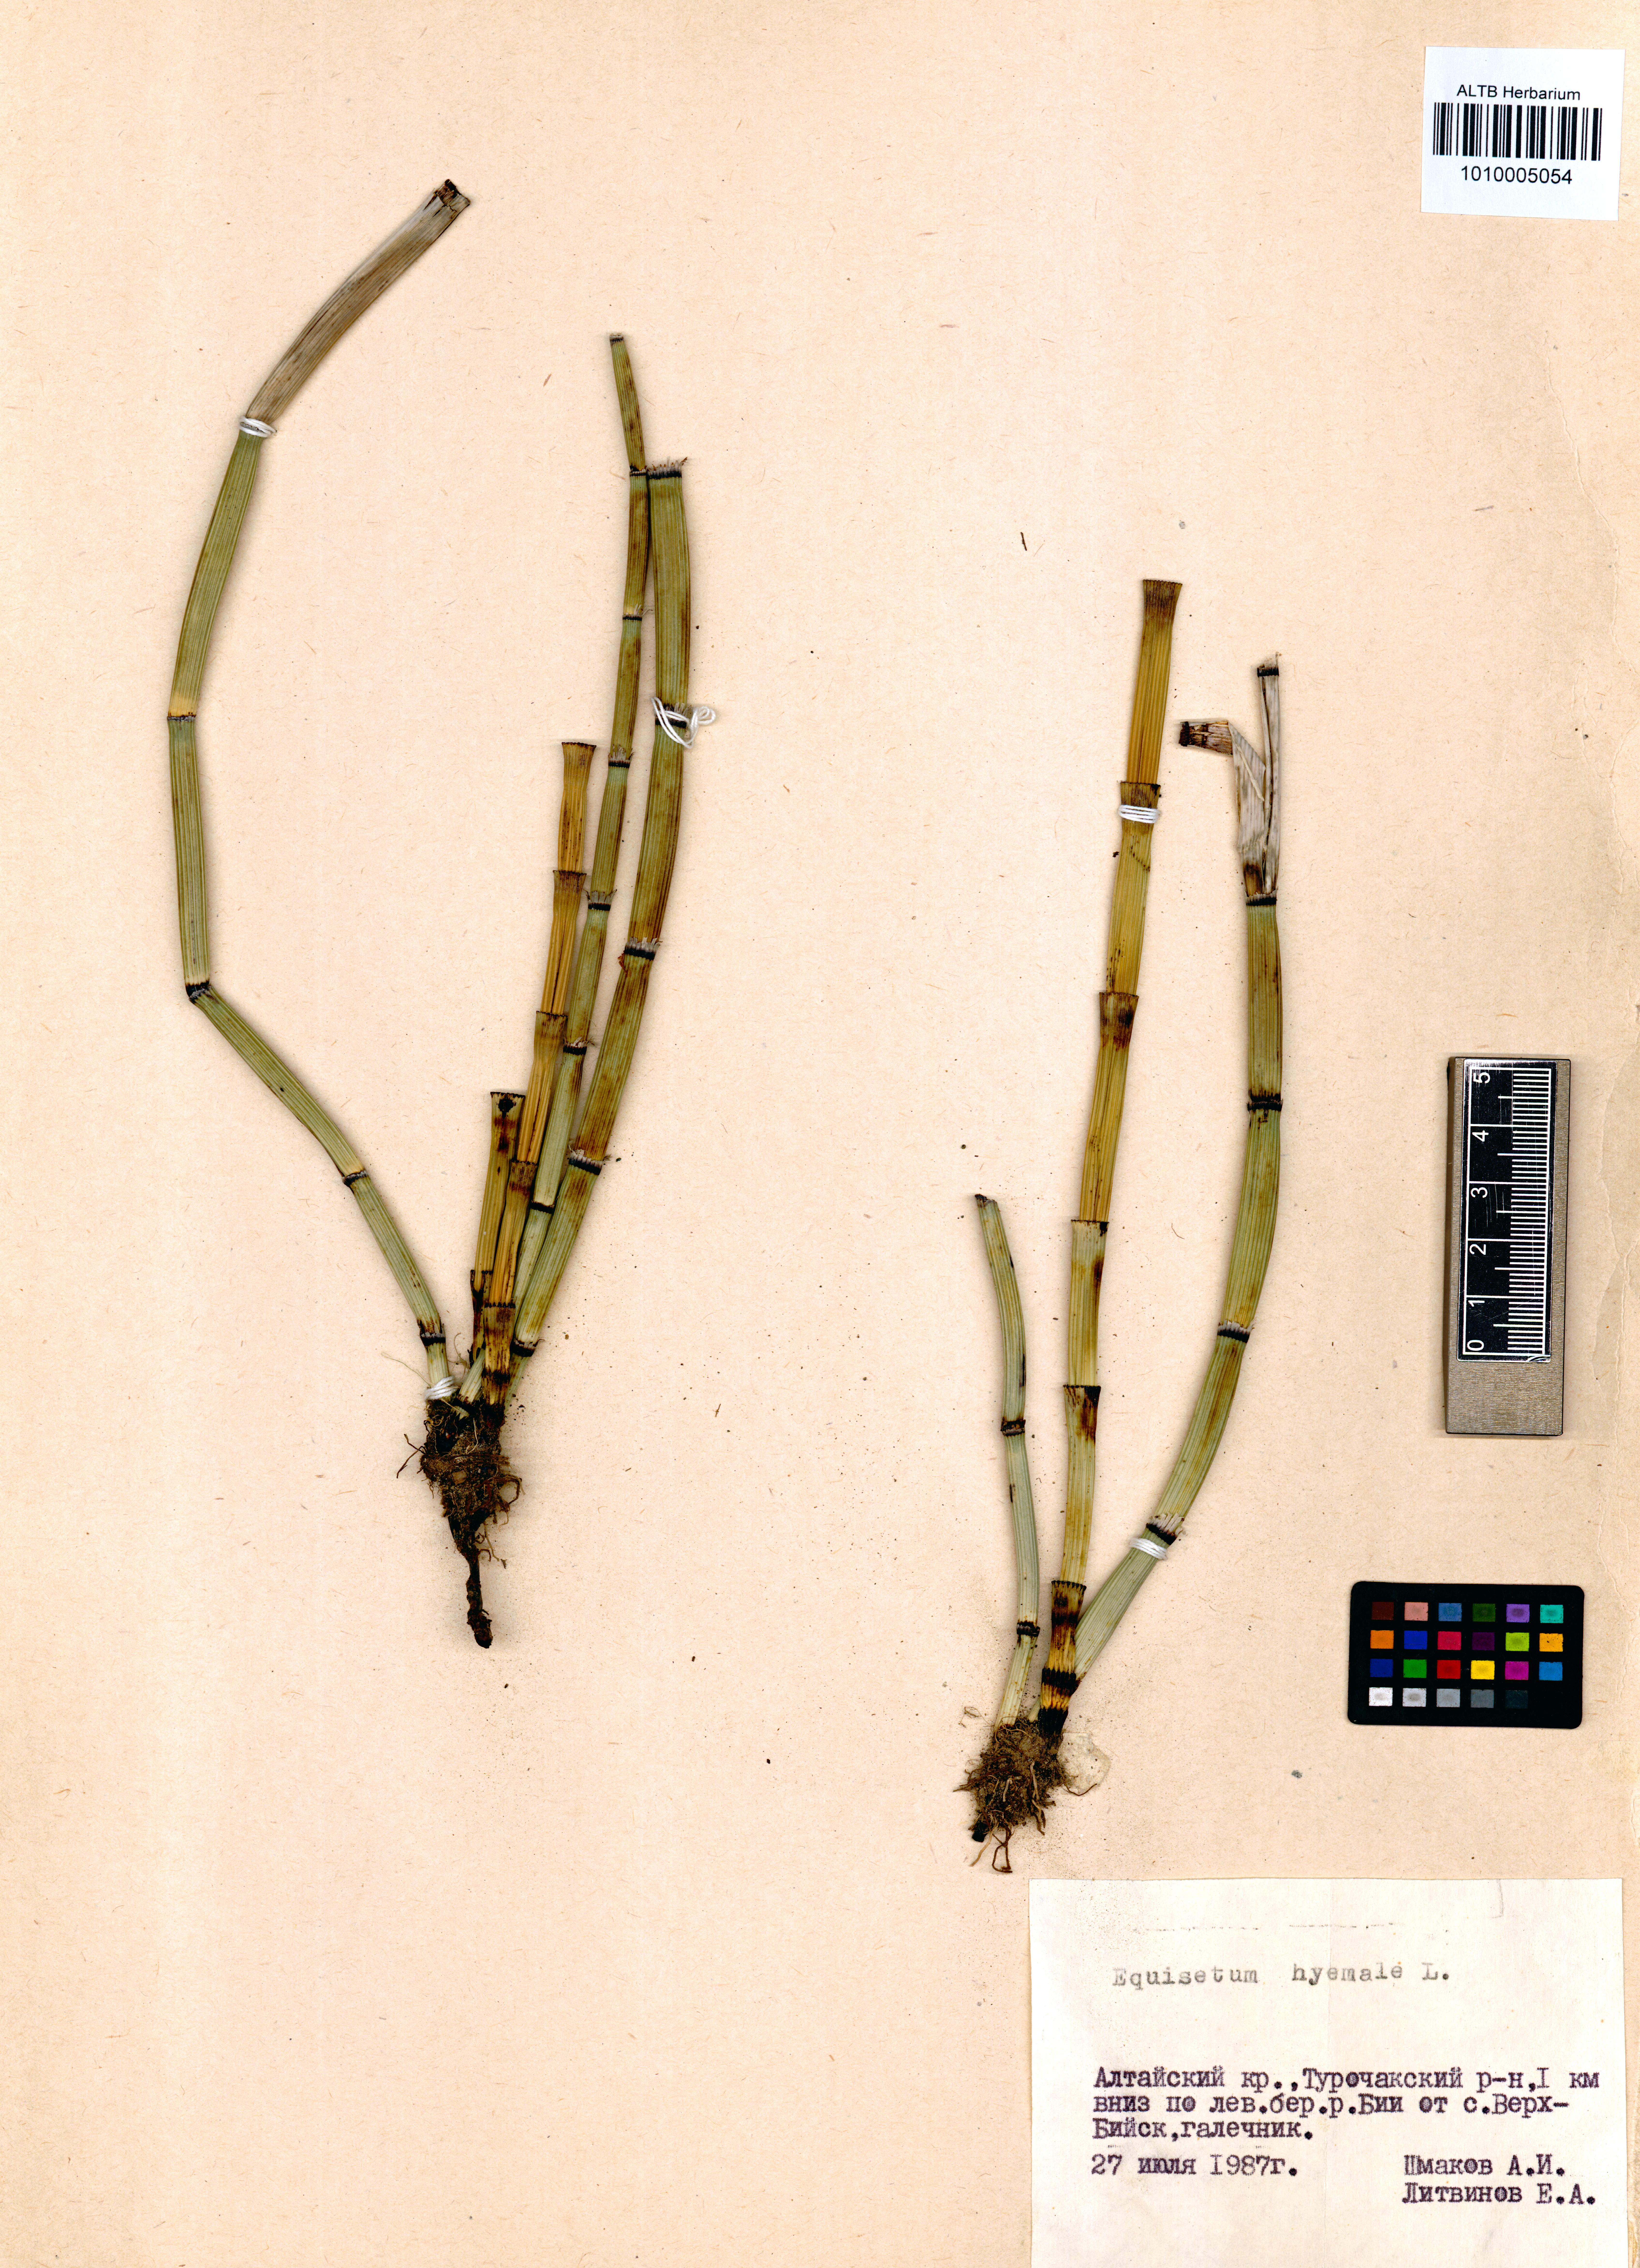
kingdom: Plantae
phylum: Tracheophyta
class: Polypodiopsida
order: Equisetales
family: Equisetaceae
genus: Equisetum
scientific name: Equisetum hyemale
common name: Rough horsetail
